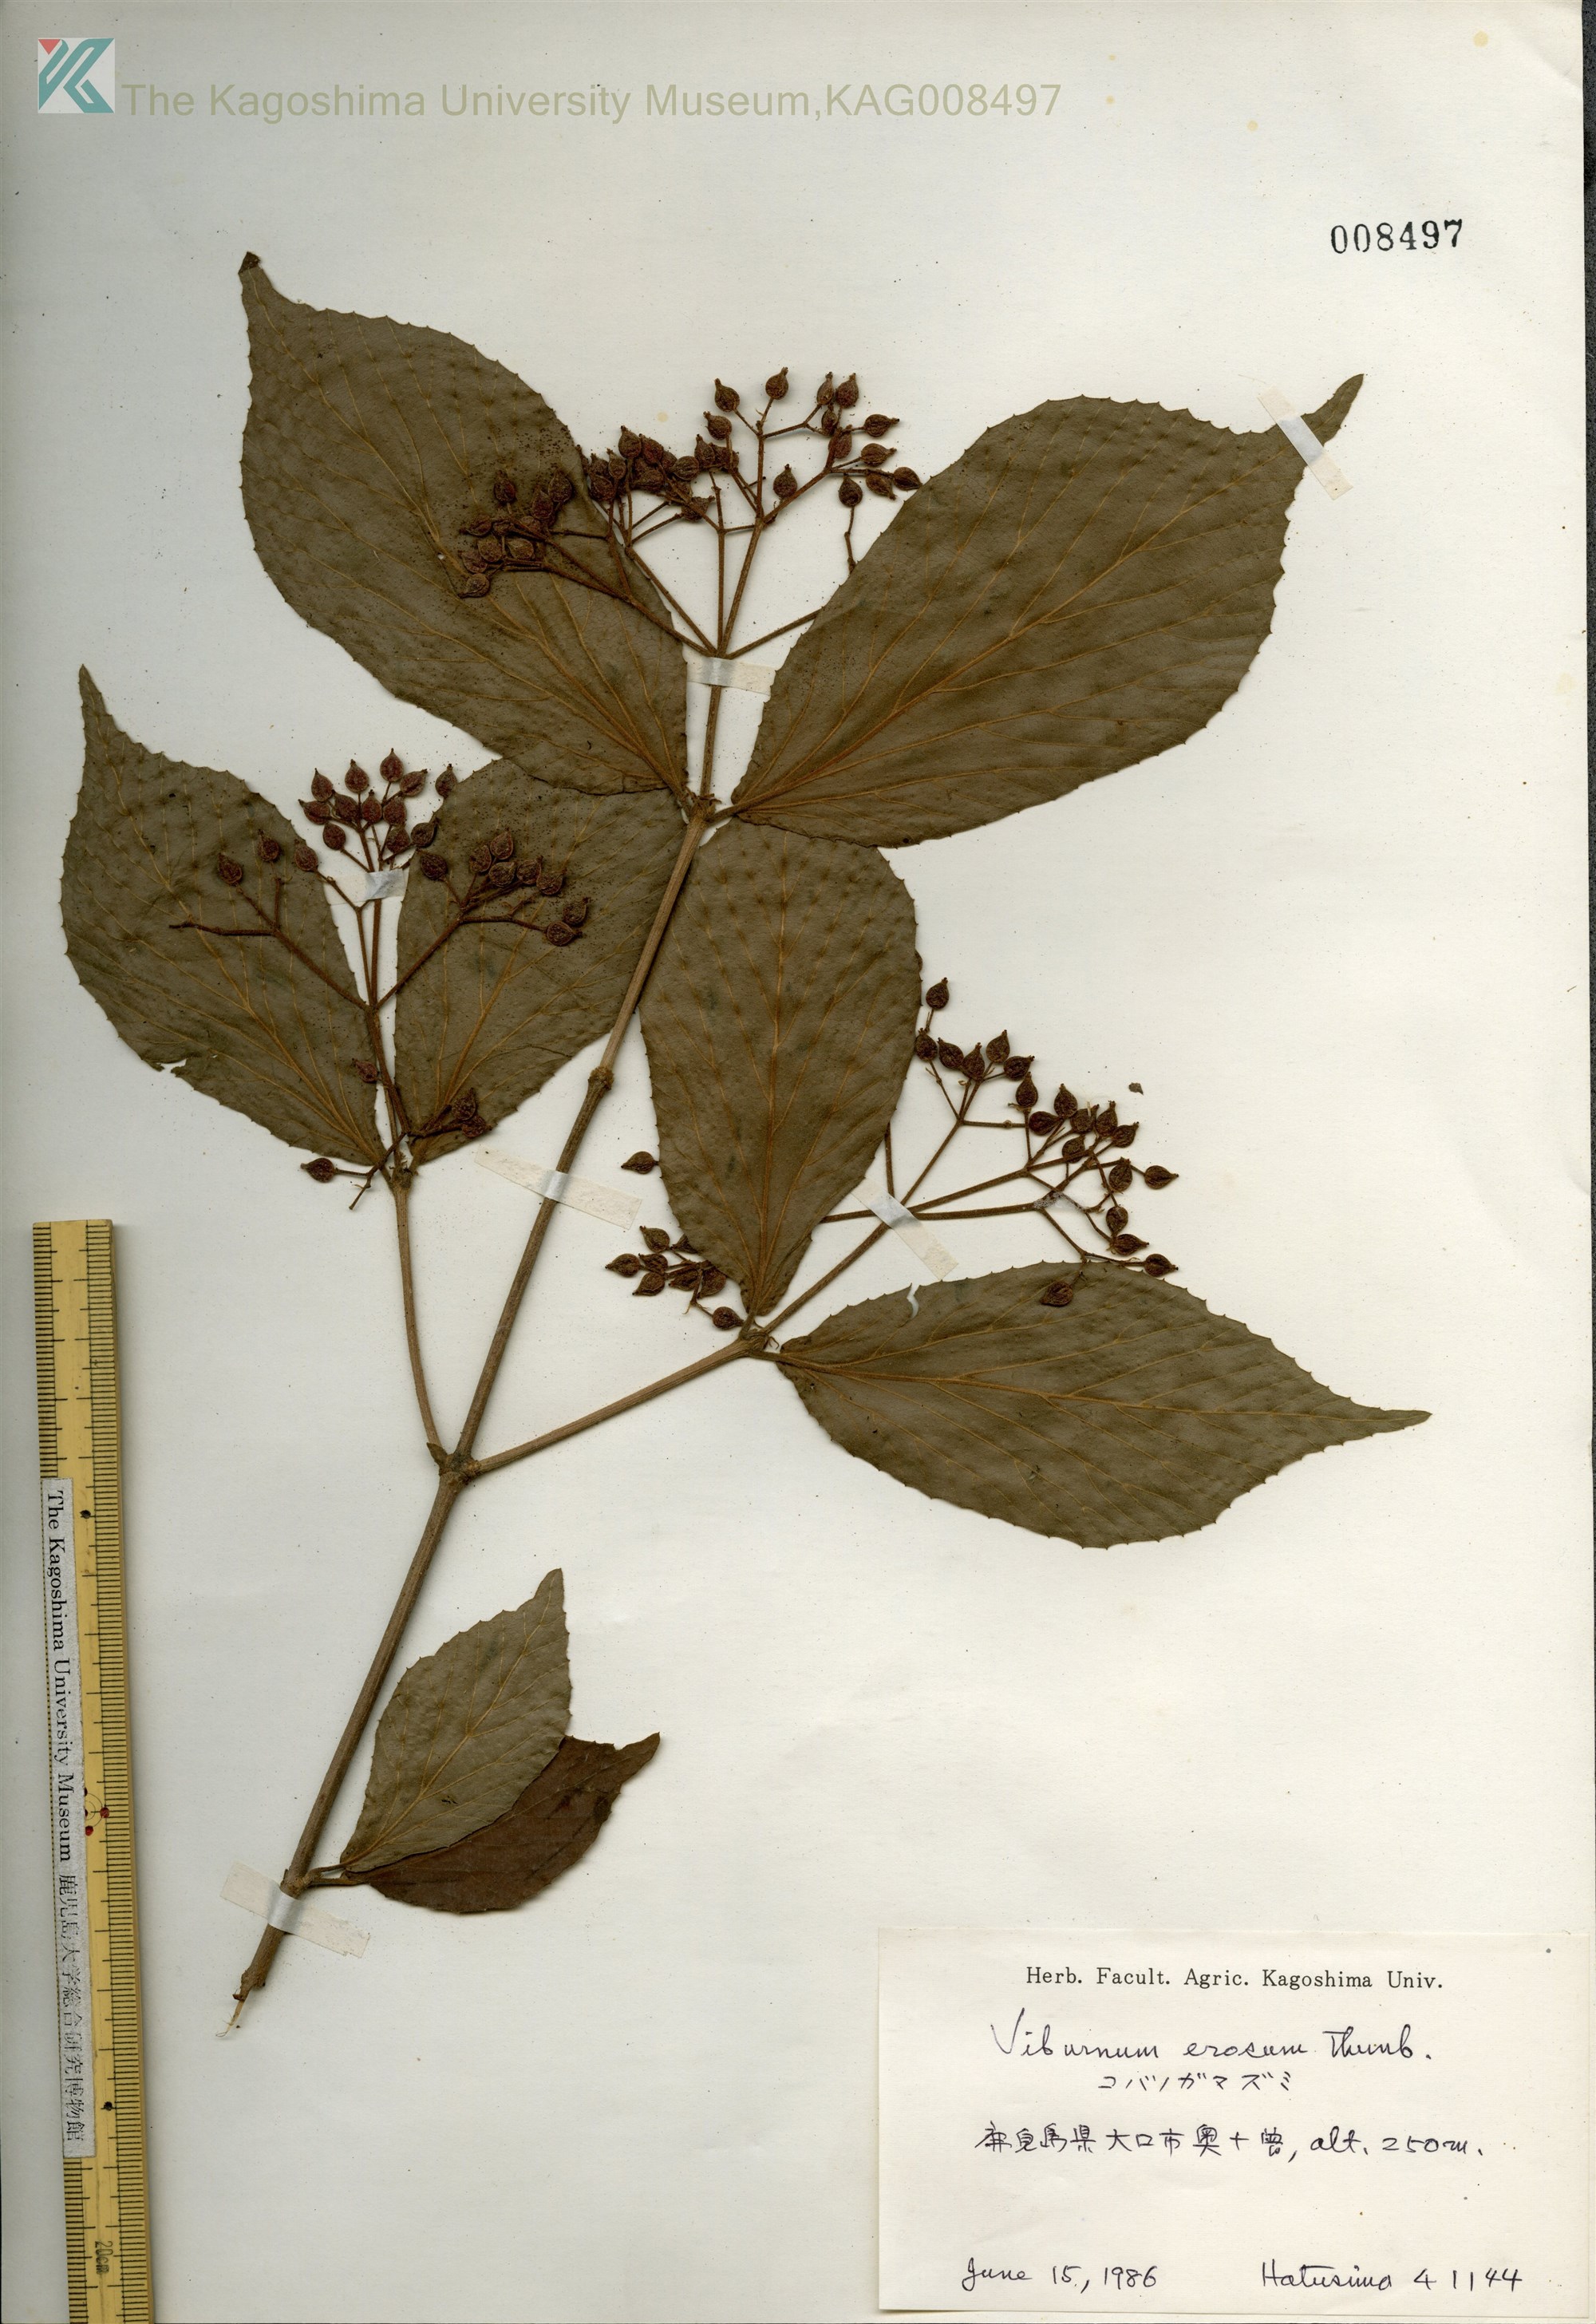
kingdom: Plantae
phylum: Tracheophyta
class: Magnoliopsida
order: Dipsacales
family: Viburnaceae
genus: Viburnum
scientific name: Viburnum erosum
